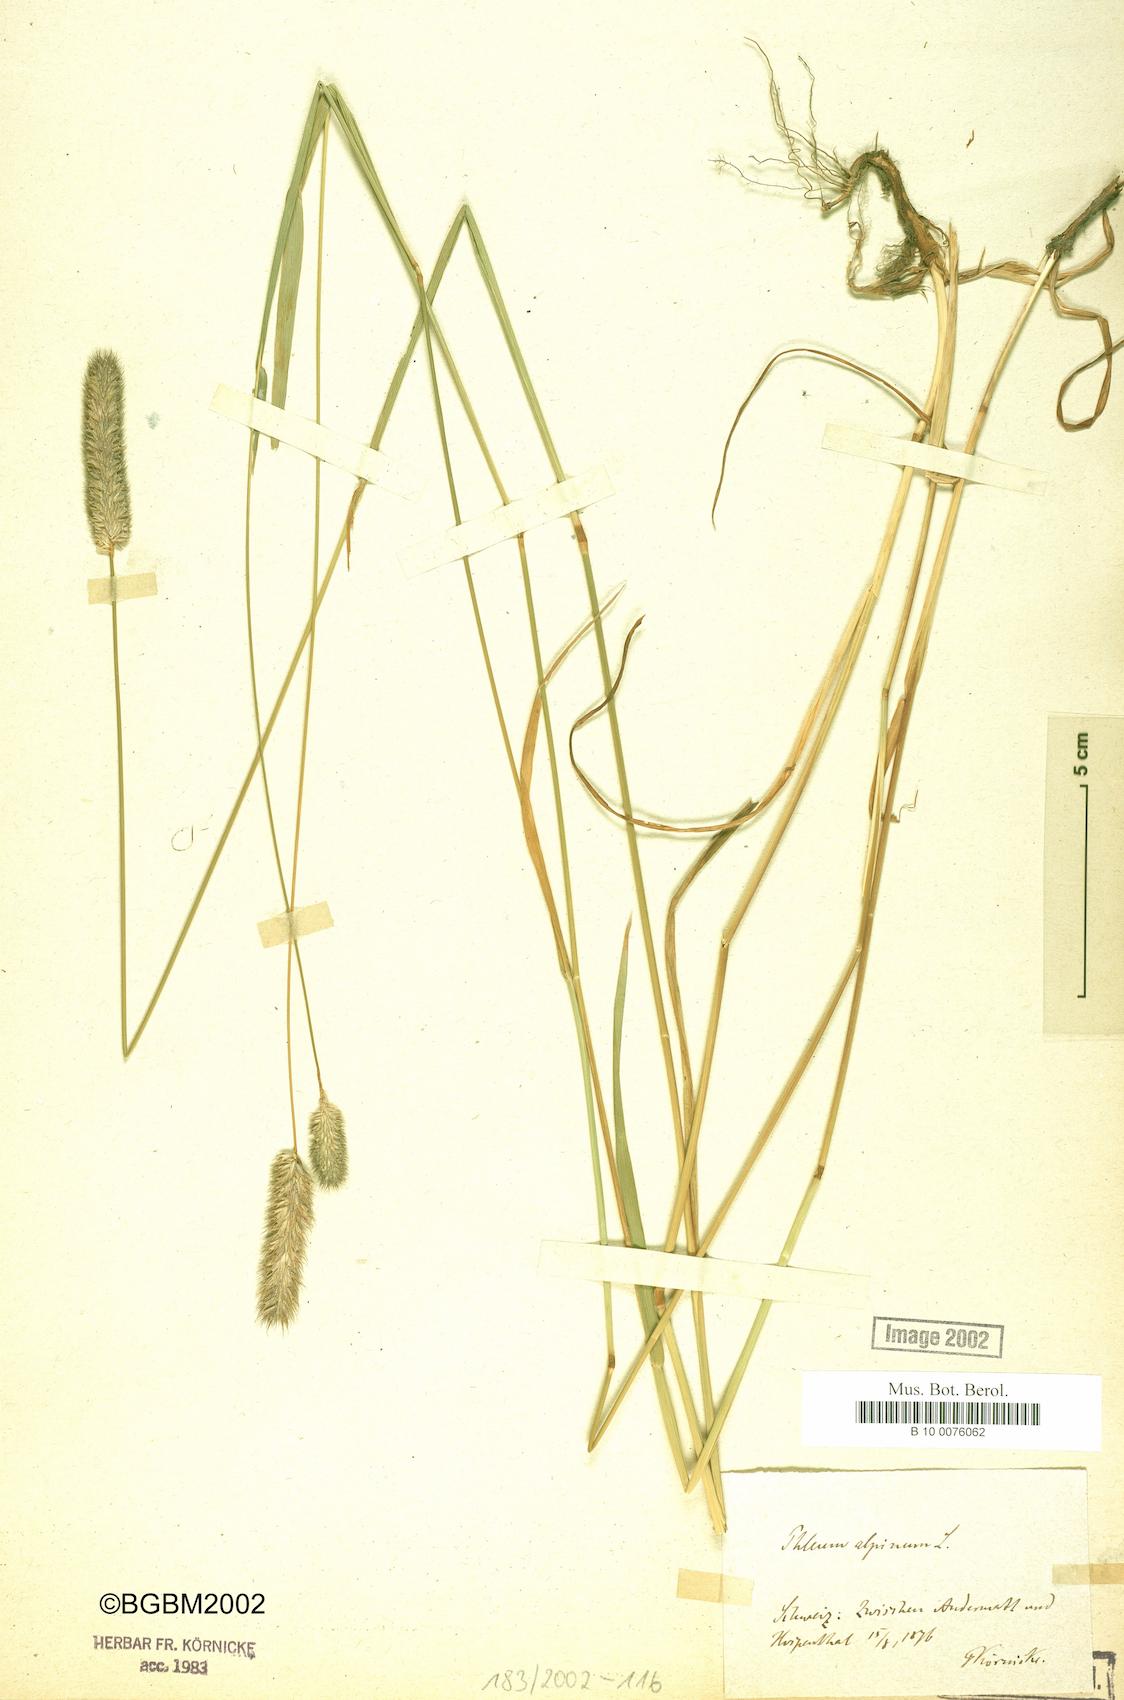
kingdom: Plantae
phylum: Tracheophyta
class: Liliopsida
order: Poales
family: Poaceae
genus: Phleum
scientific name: Phleum alpinum
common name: Alpine cat's-tail
